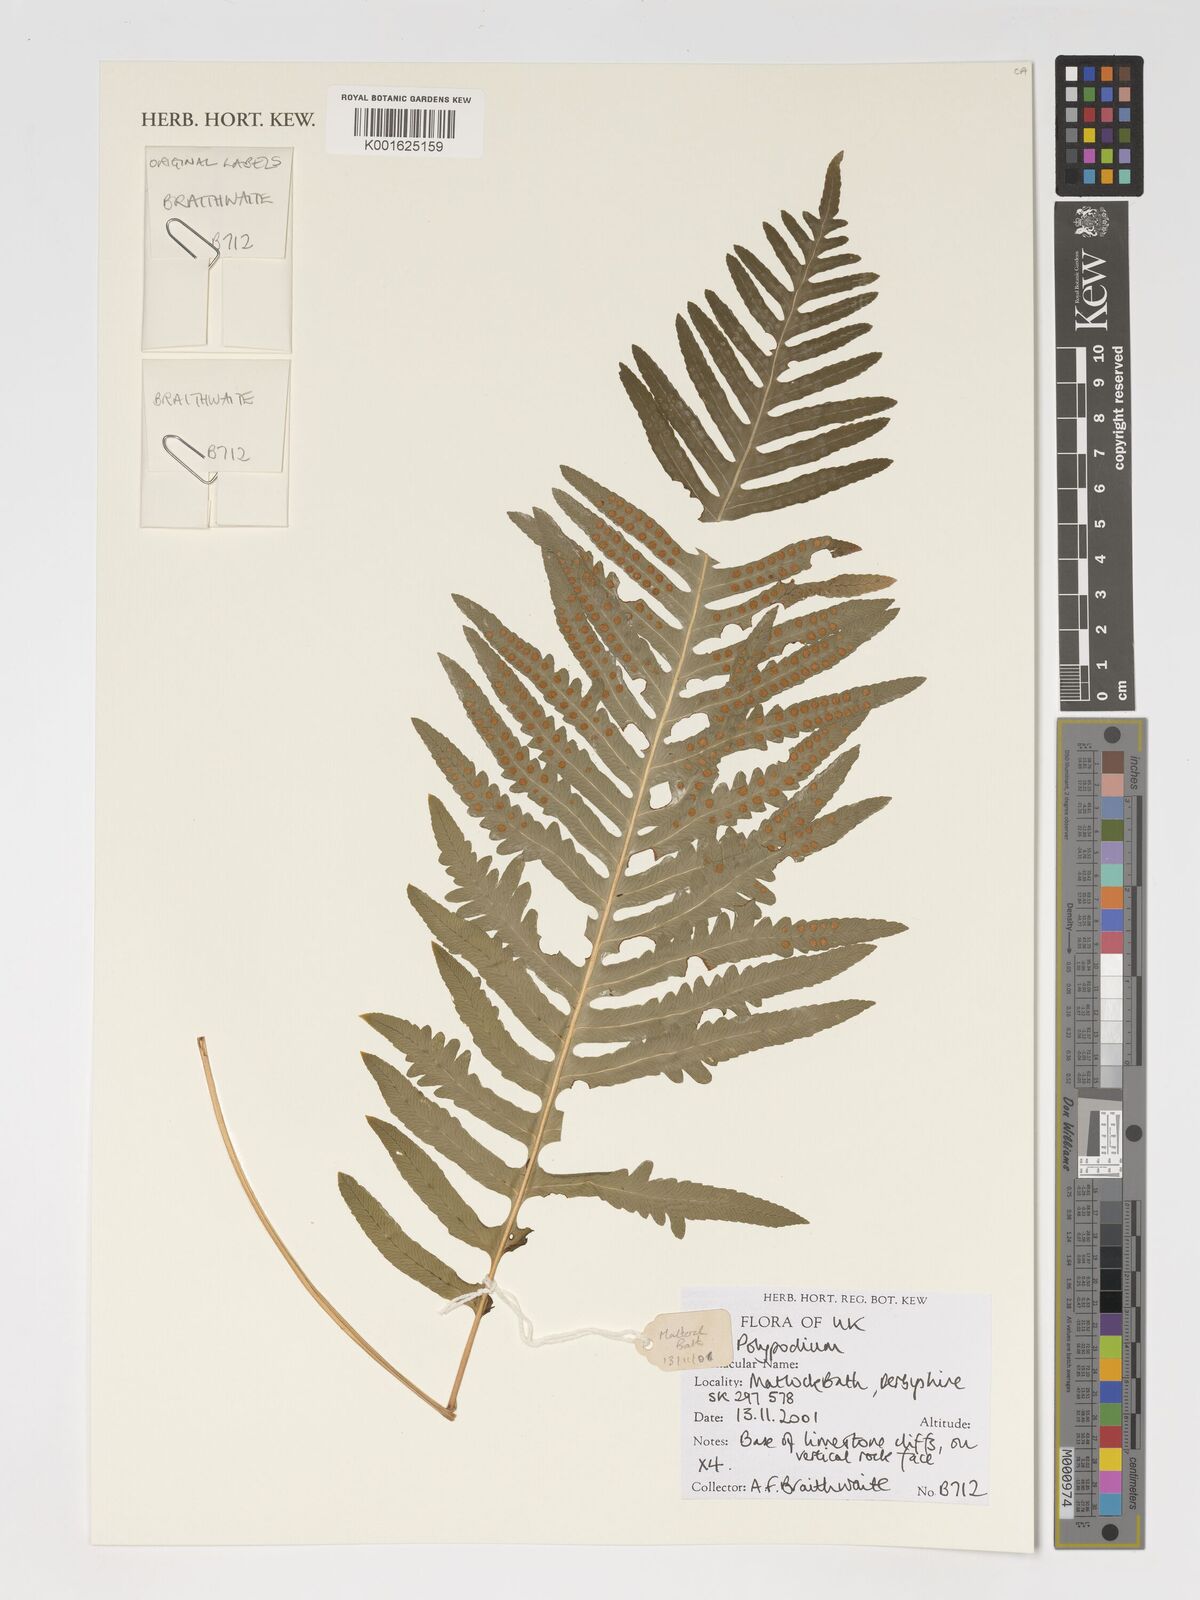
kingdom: Plantae
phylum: Tracheophyta
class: Polypodiopsida
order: Polypodiales
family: Polypodiaceae
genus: Polypodium
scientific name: Polypodium
